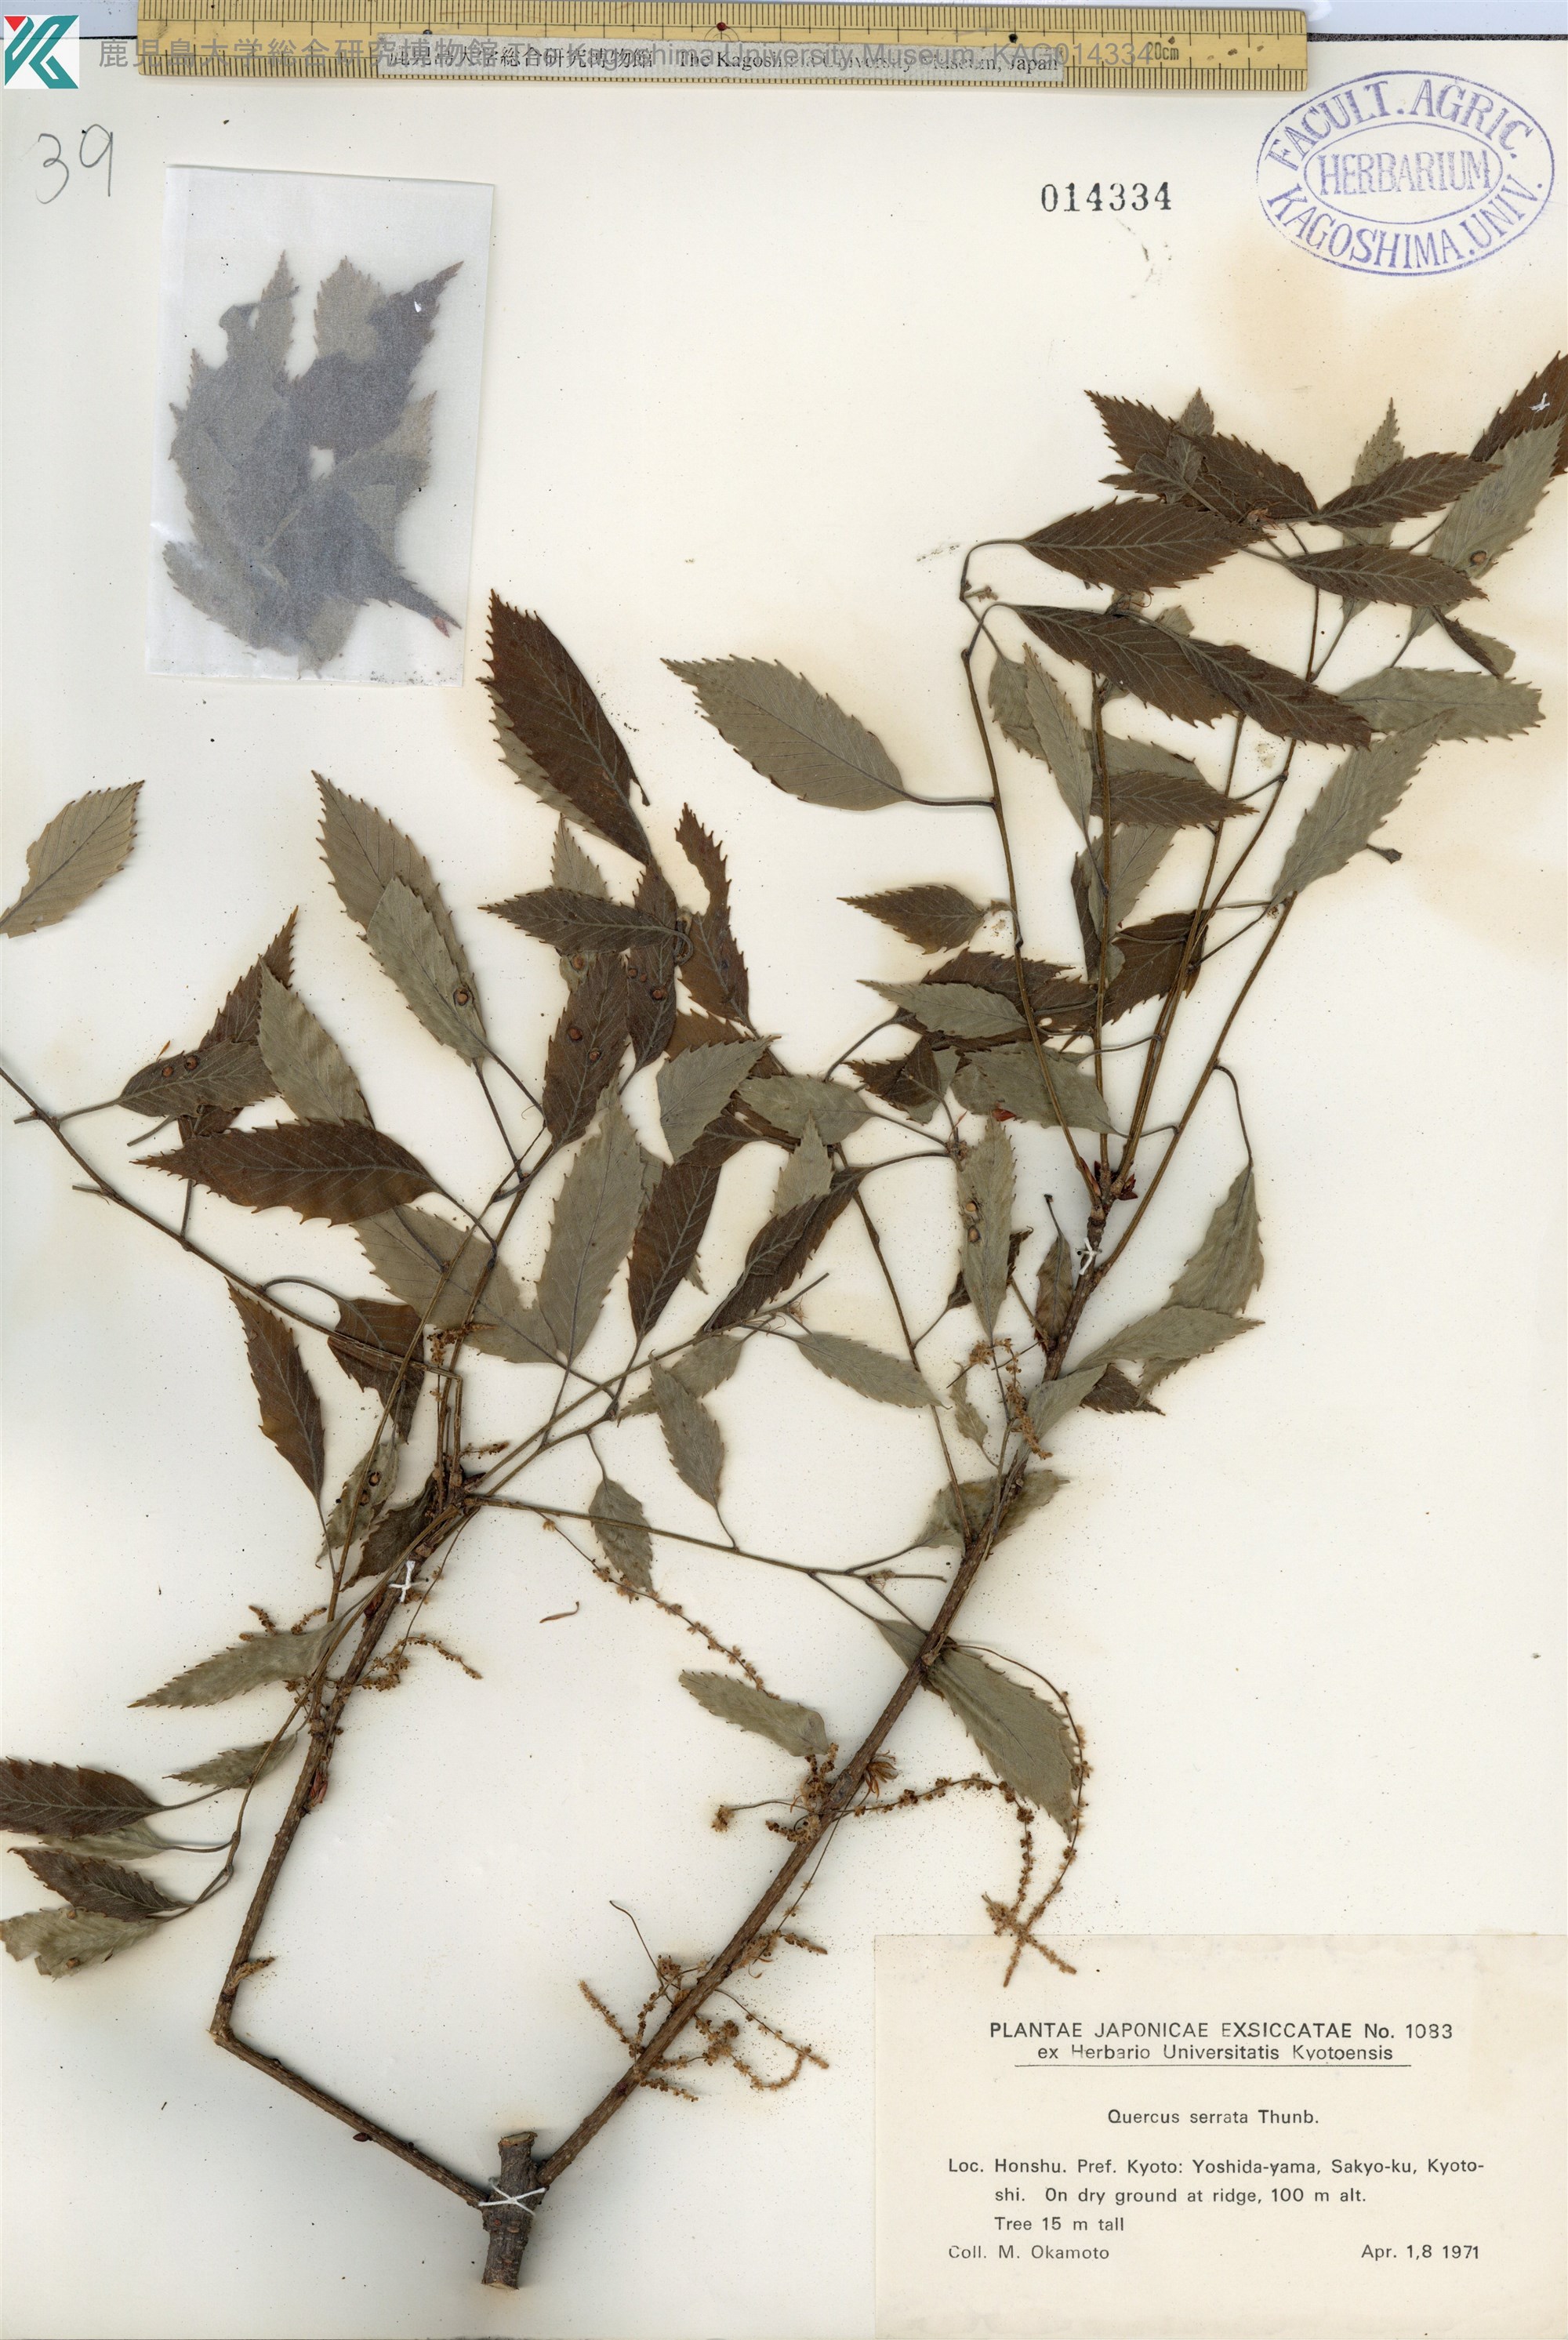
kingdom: Plantae
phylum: Tracheophyta
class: Magnoliopsida
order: Fagales
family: Fagaceae
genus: Quercus
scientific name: Quercus serrata
